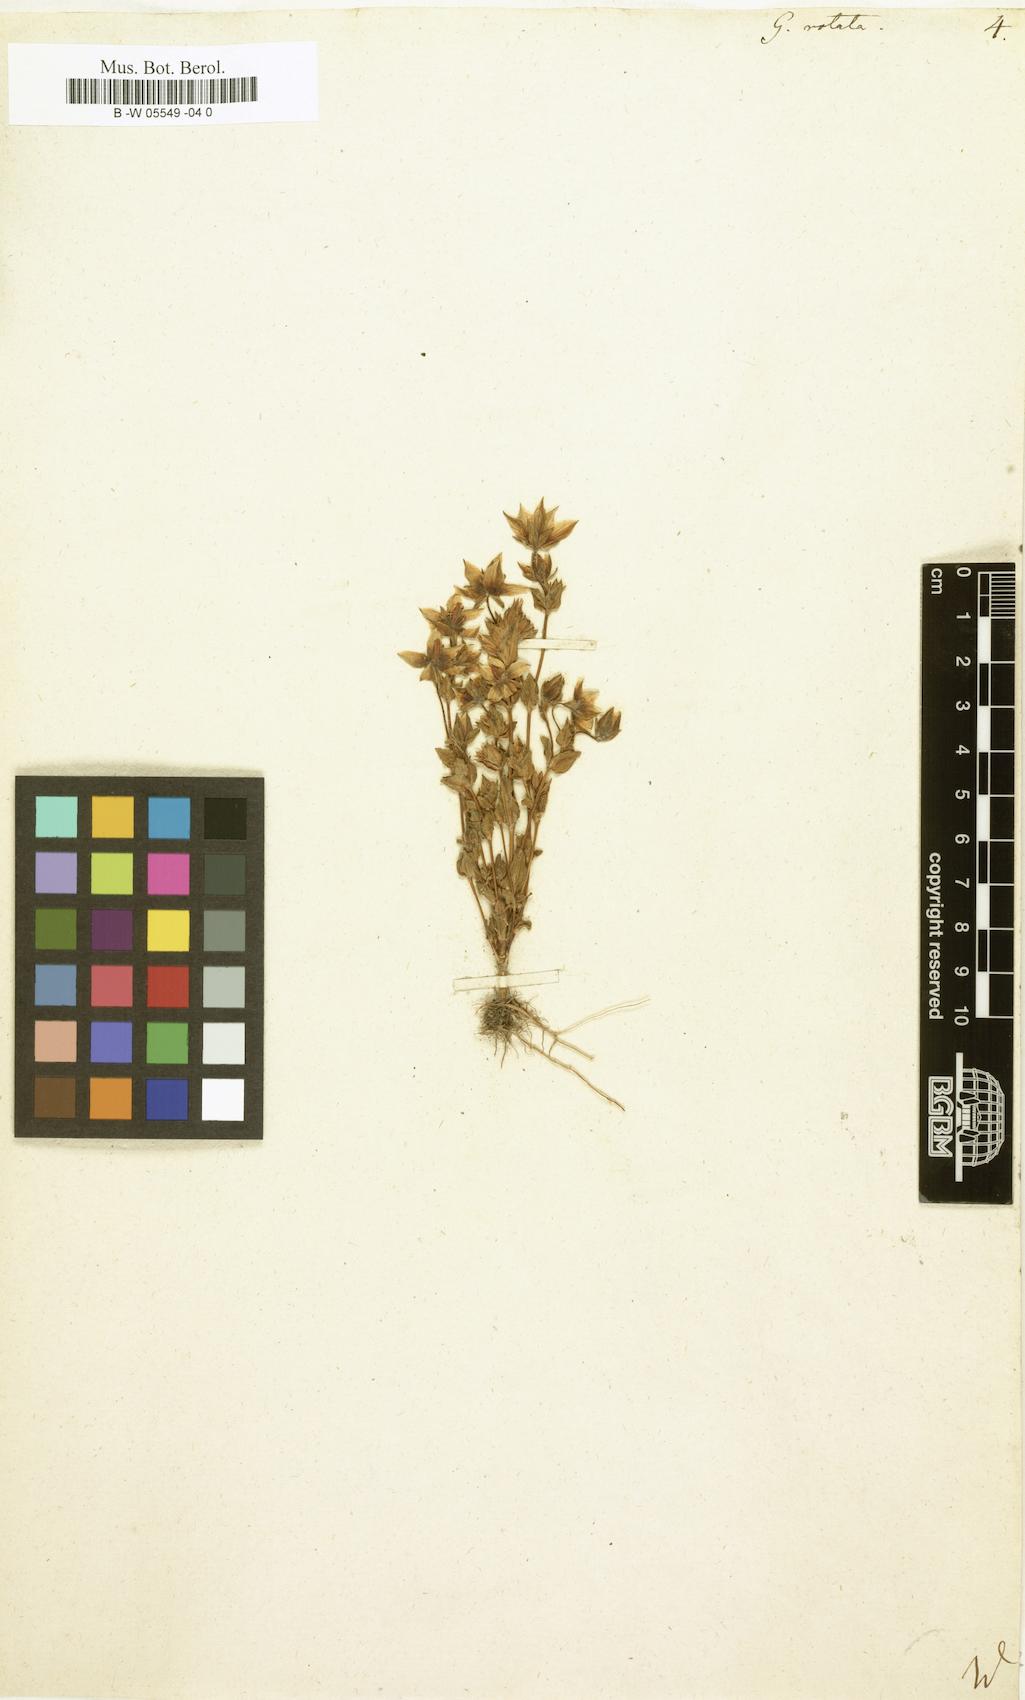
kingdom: Plantae
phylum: Tracheophyta
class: Magnoliopsida
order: Gentianales
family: Gentianaceae
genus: Lomatogonium
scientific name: Lomatogonium carinthiacum
